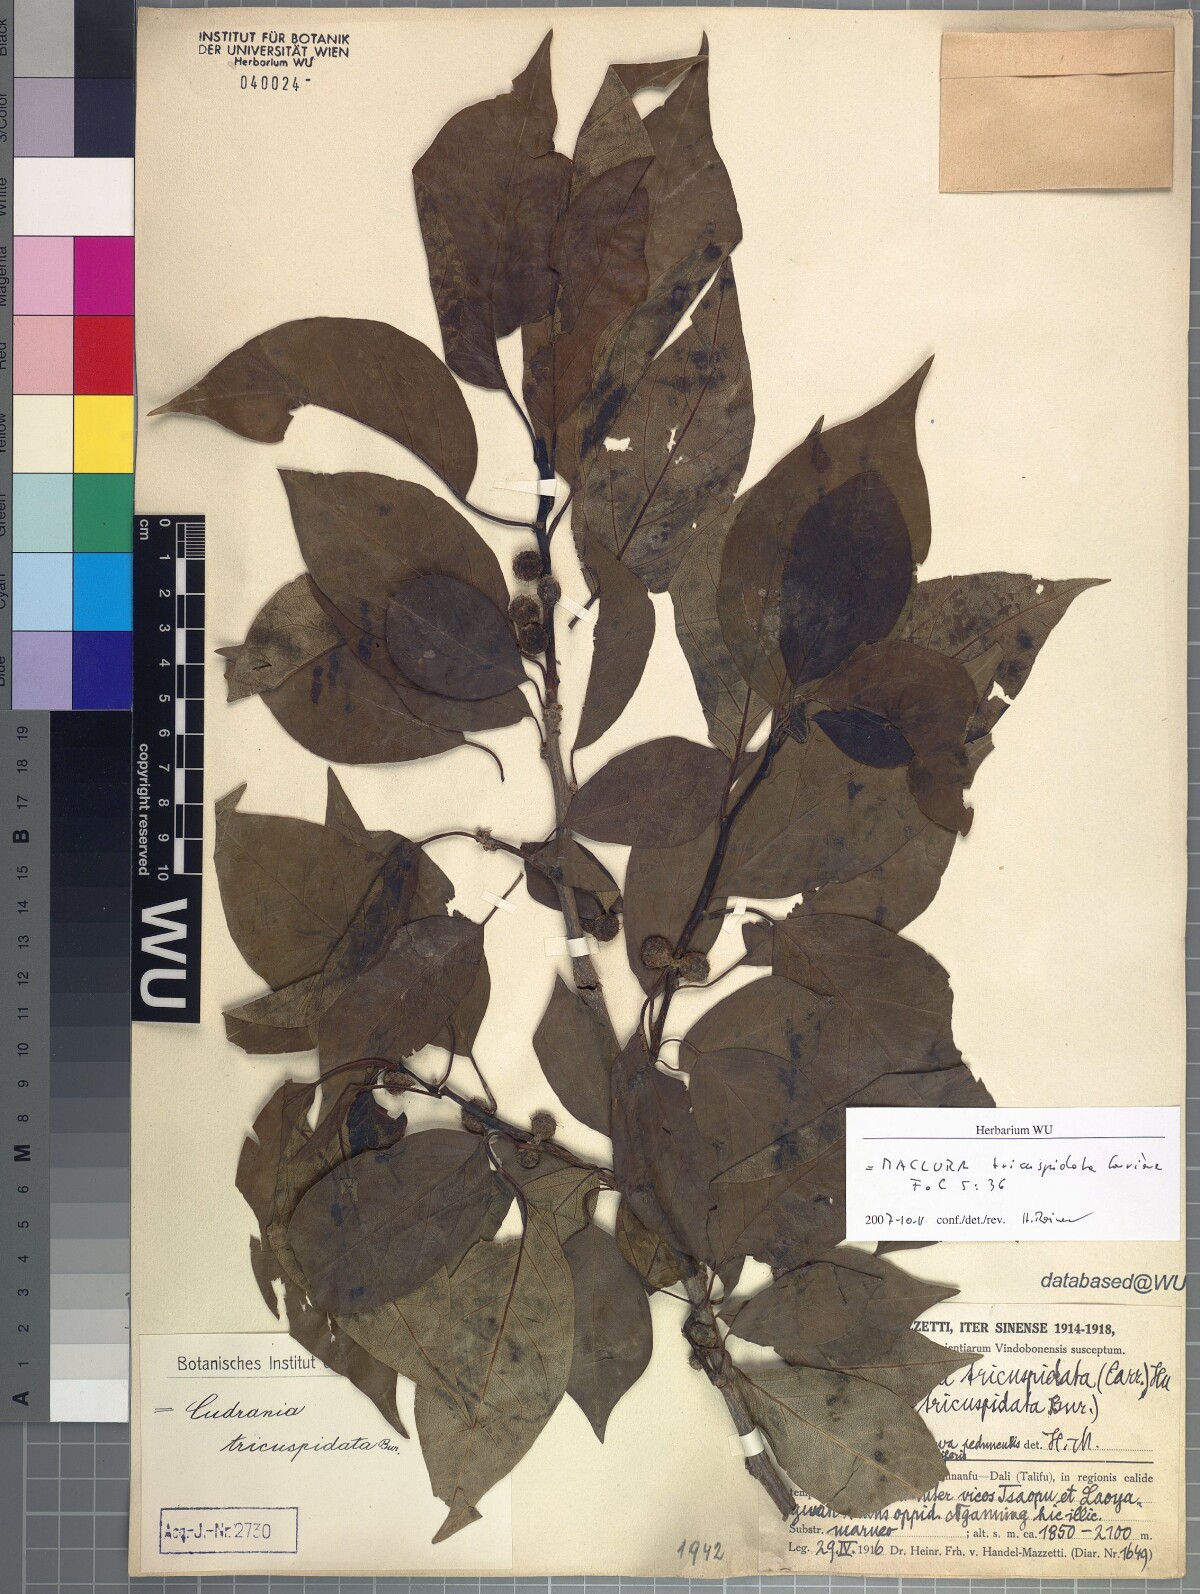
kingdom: Plantae
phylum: Tracheophyta
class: Magnoliopsida
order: Rosales
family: Moraceae
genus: Maclura
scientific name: Maclura tricuspidata
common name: Storehousebush
